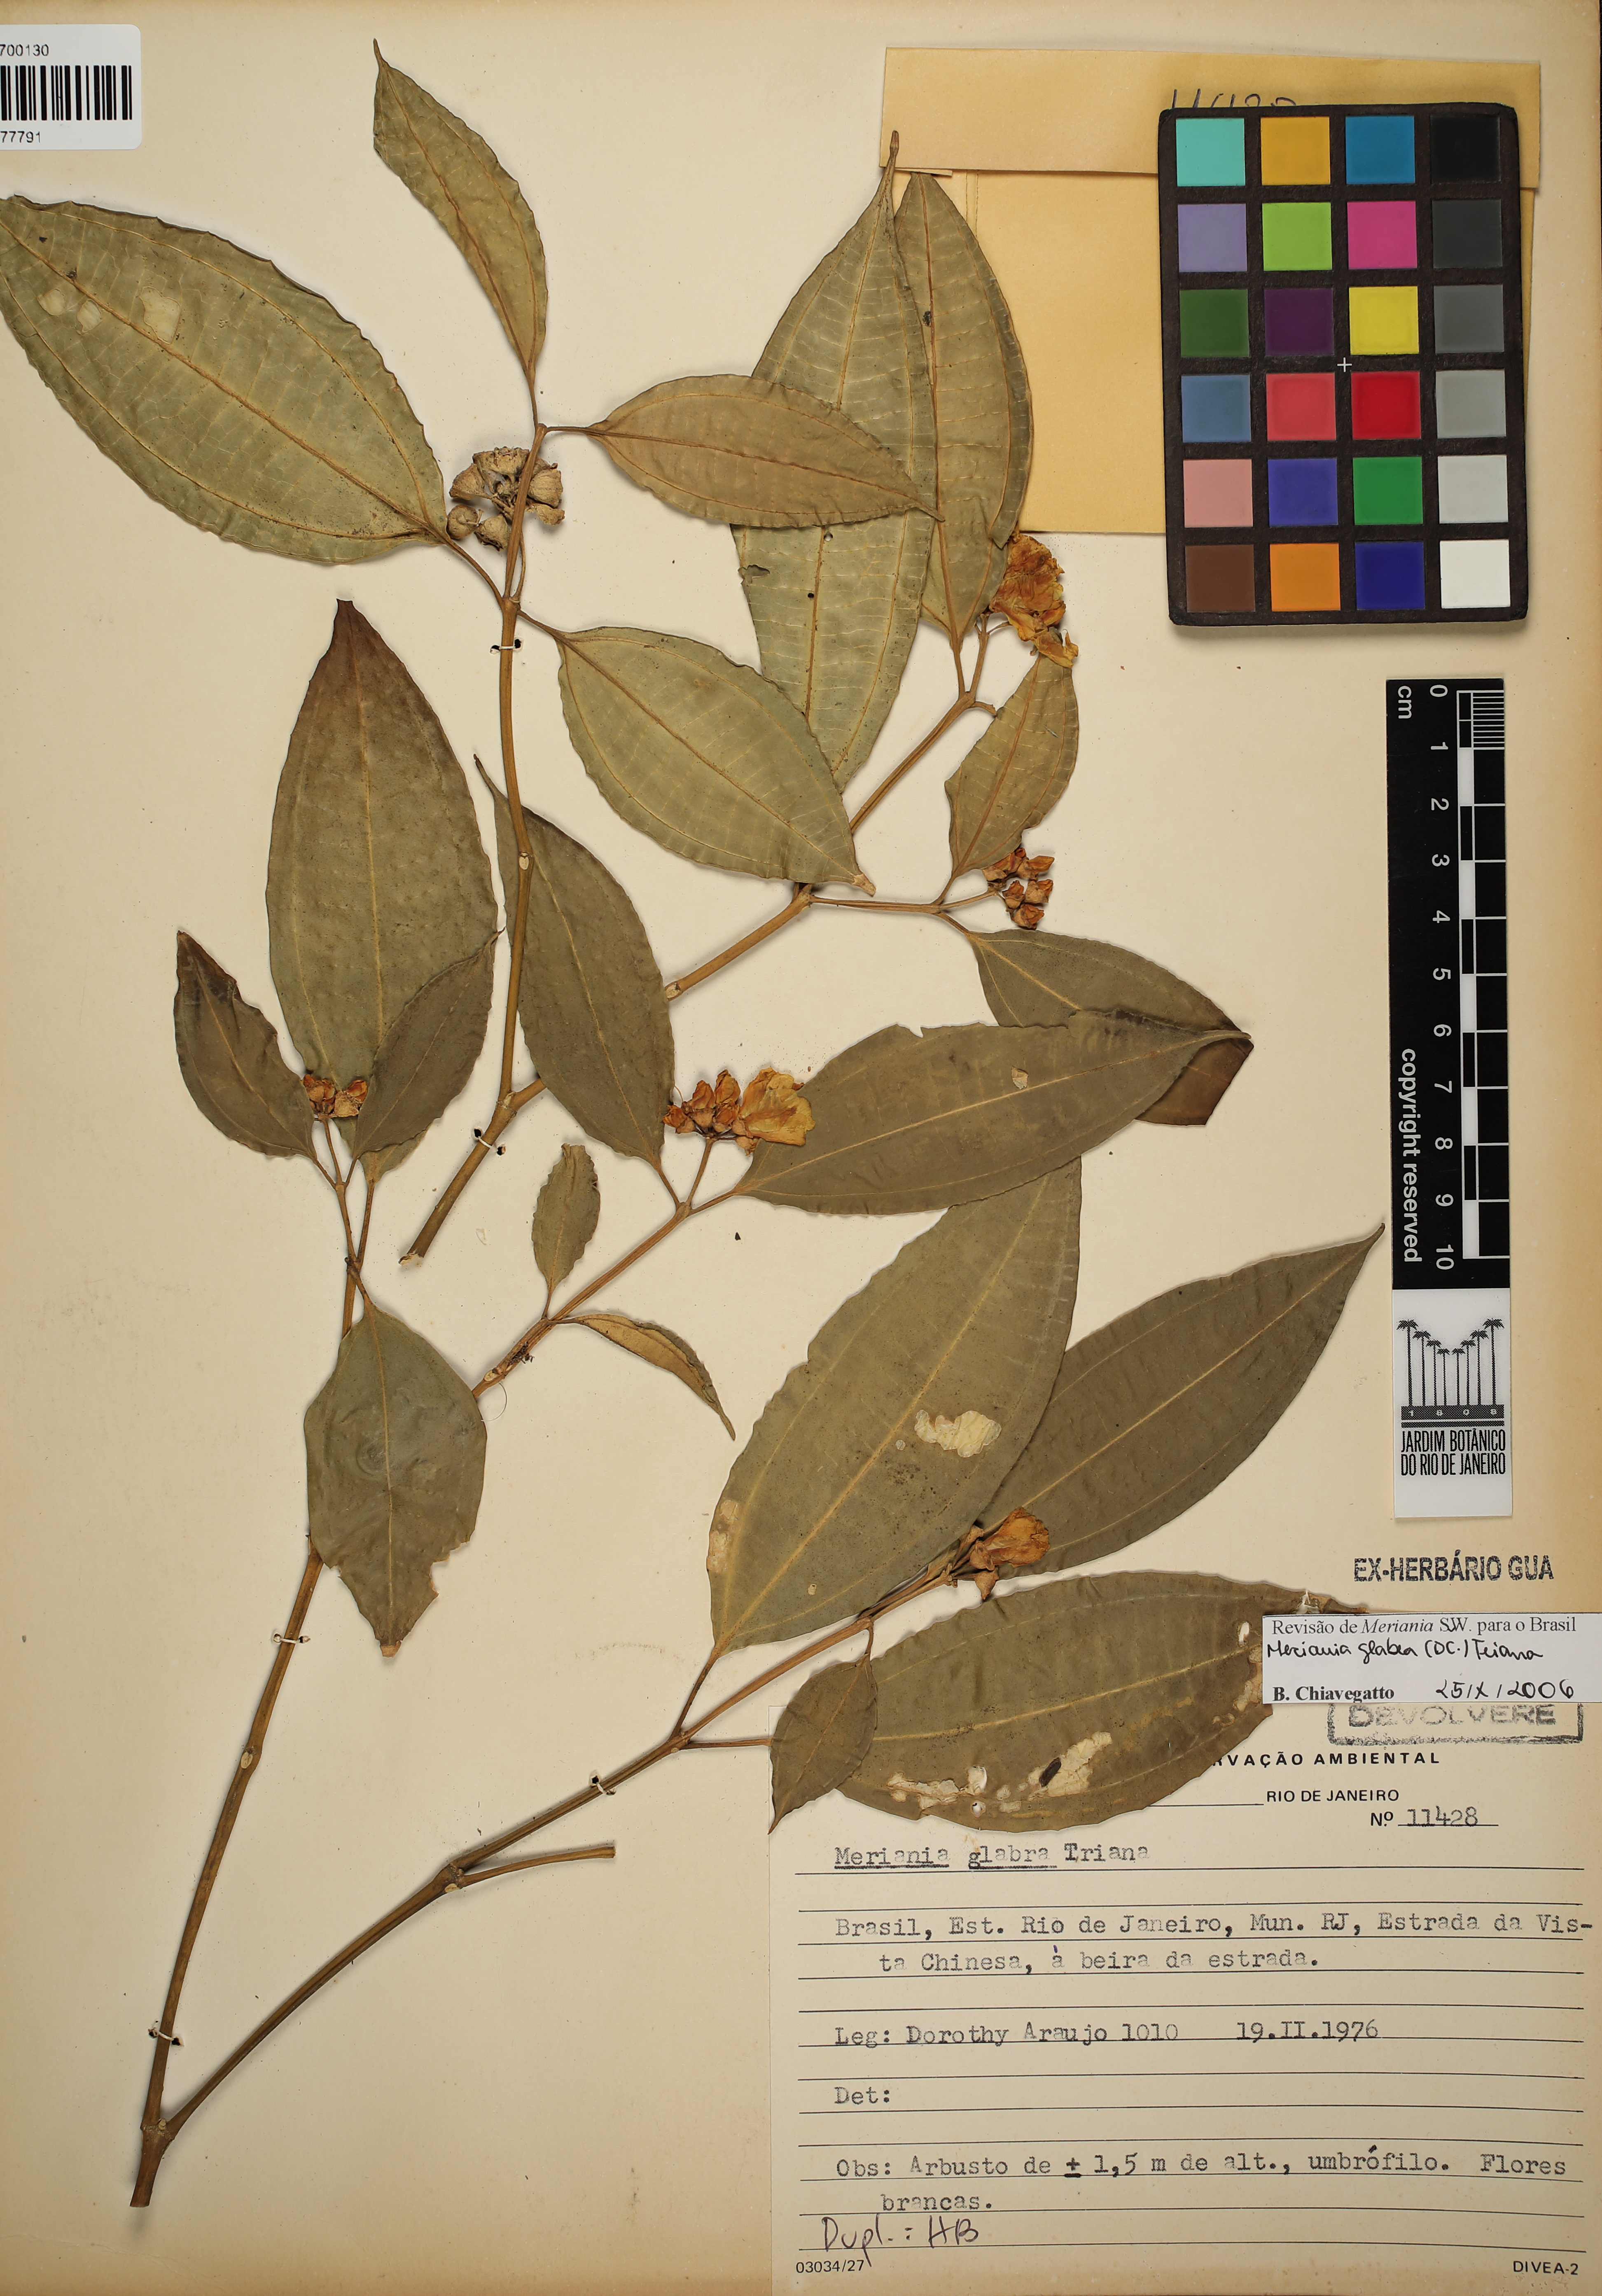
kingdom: Plantae
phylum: Tracheophyta
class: Magnoliopsida
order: Myrtales
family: Melastomataceae
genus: Meriania
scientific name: Meriania glabra
